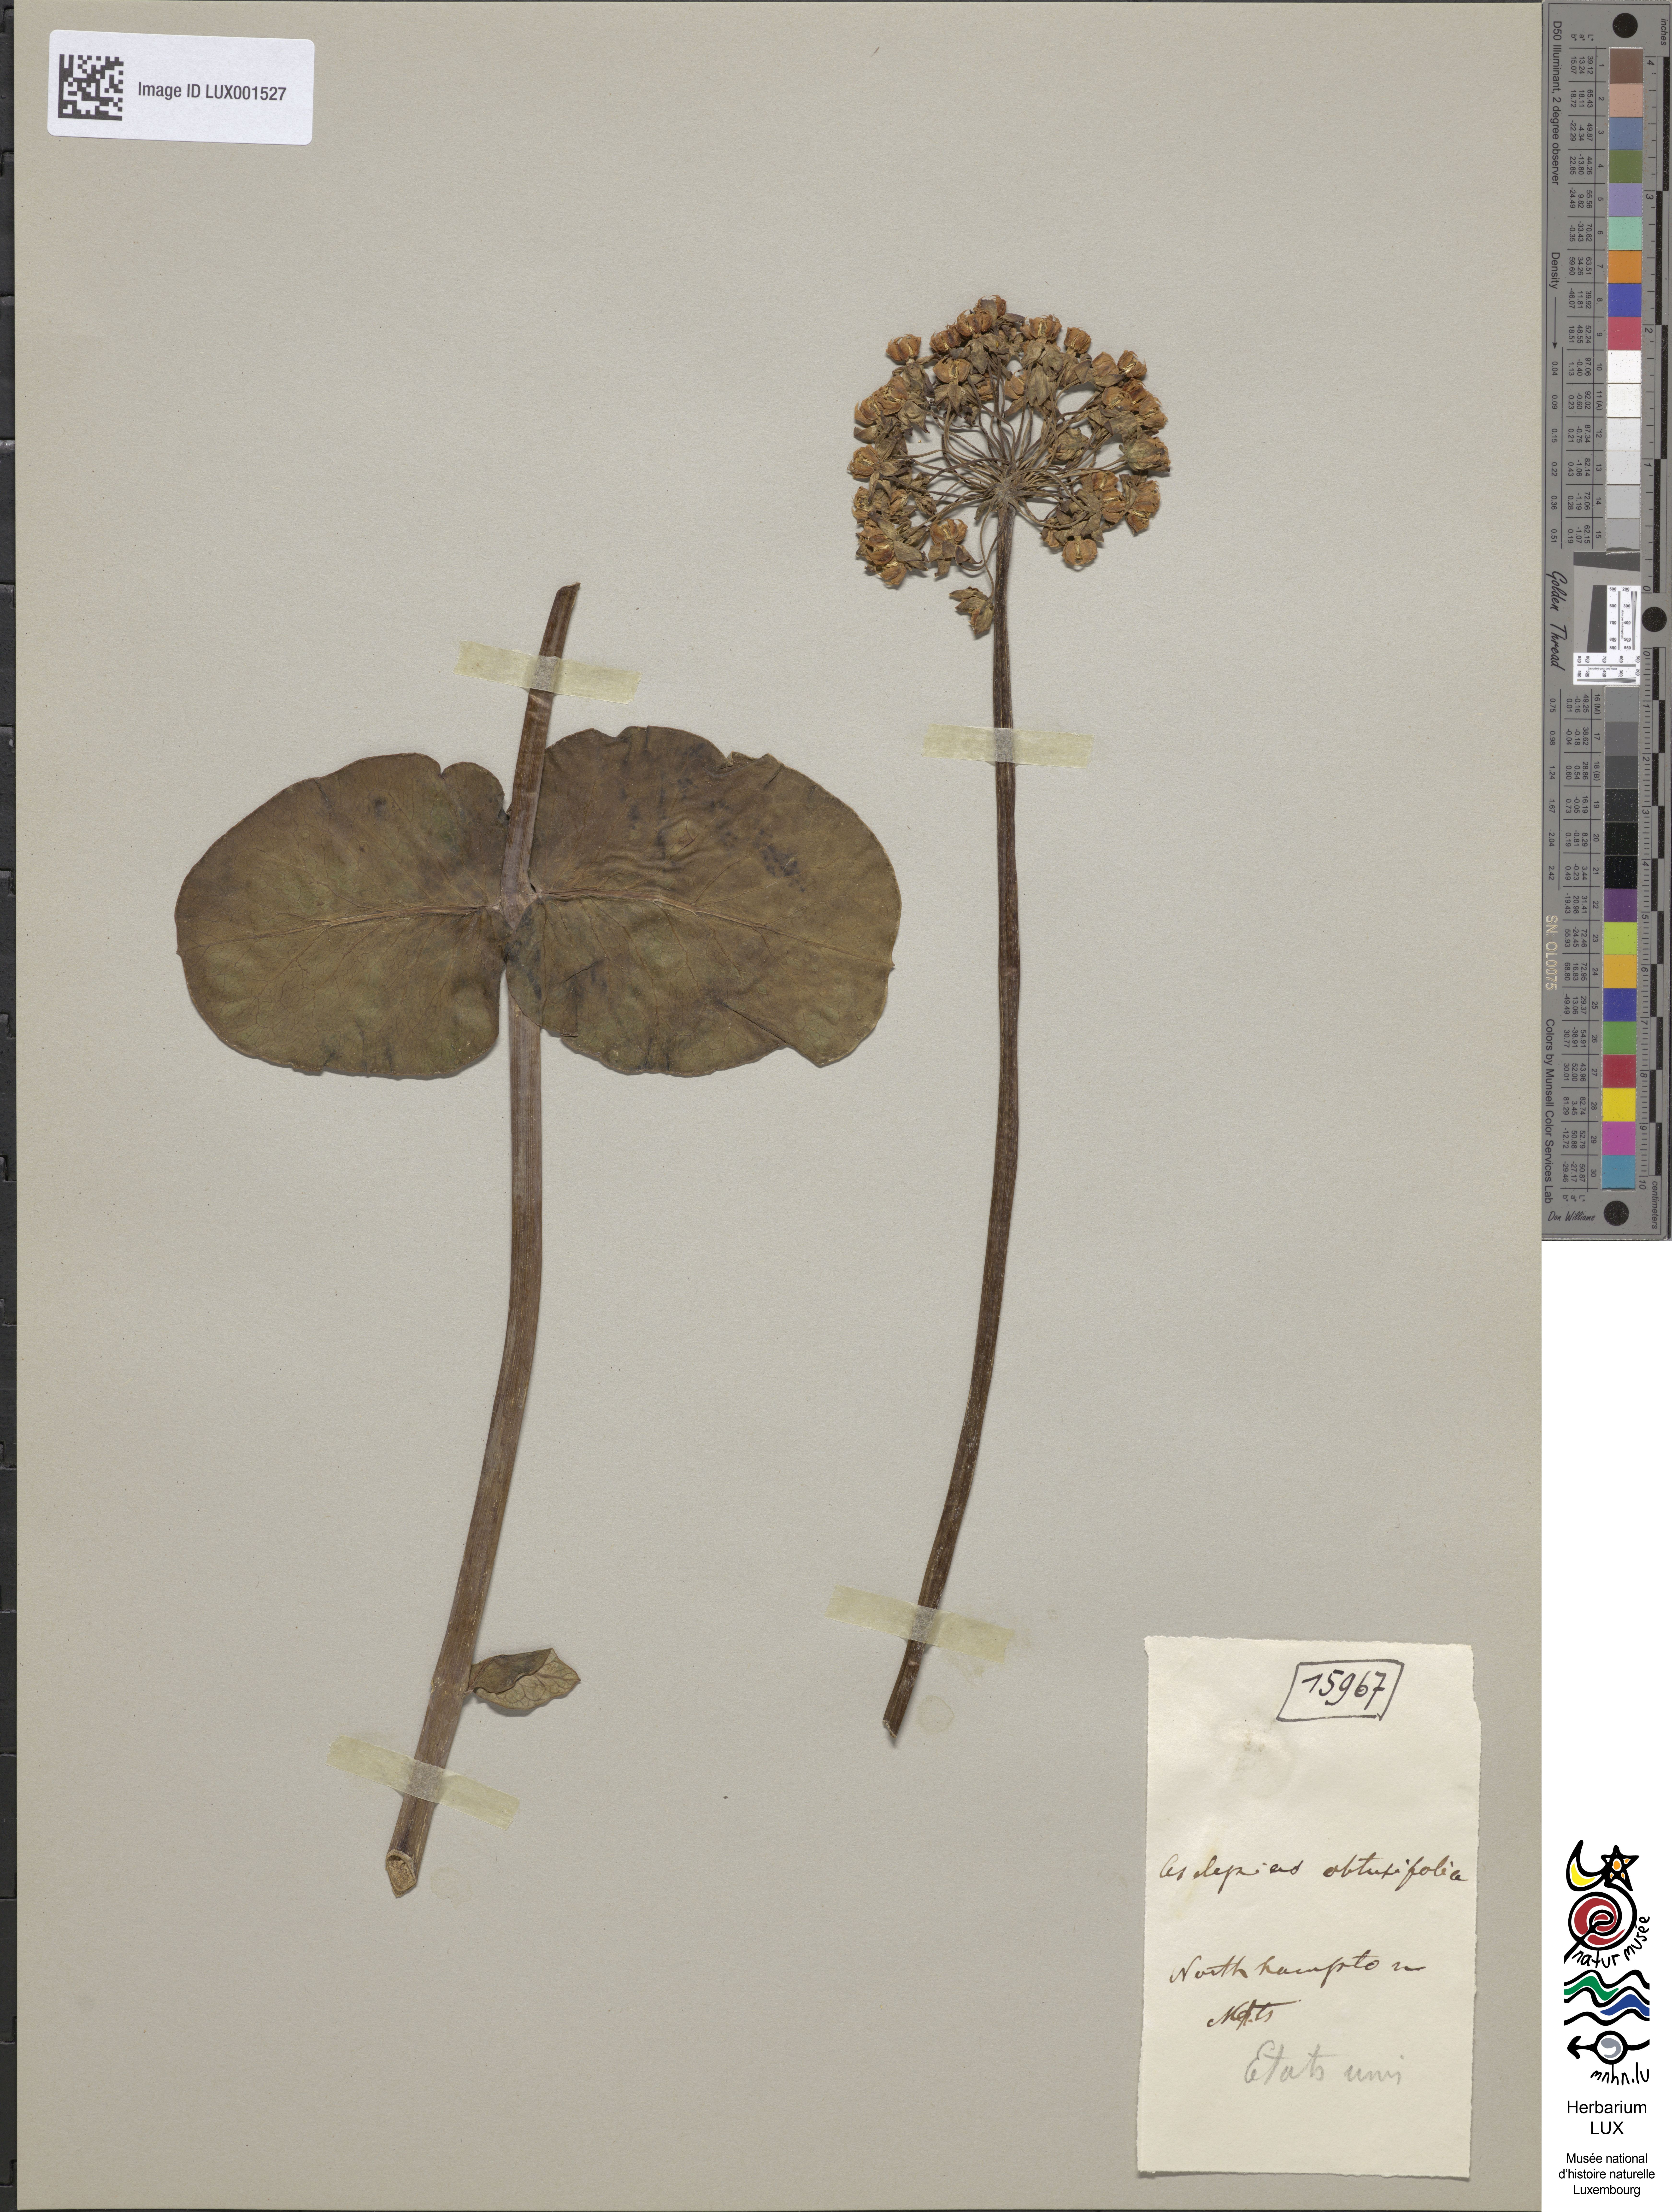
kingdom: Plantae
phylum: Tracheophyta
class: Magnoliopsida
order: Gentianales
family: Apocynaceae
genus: Asclepias
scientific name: Asclepias
